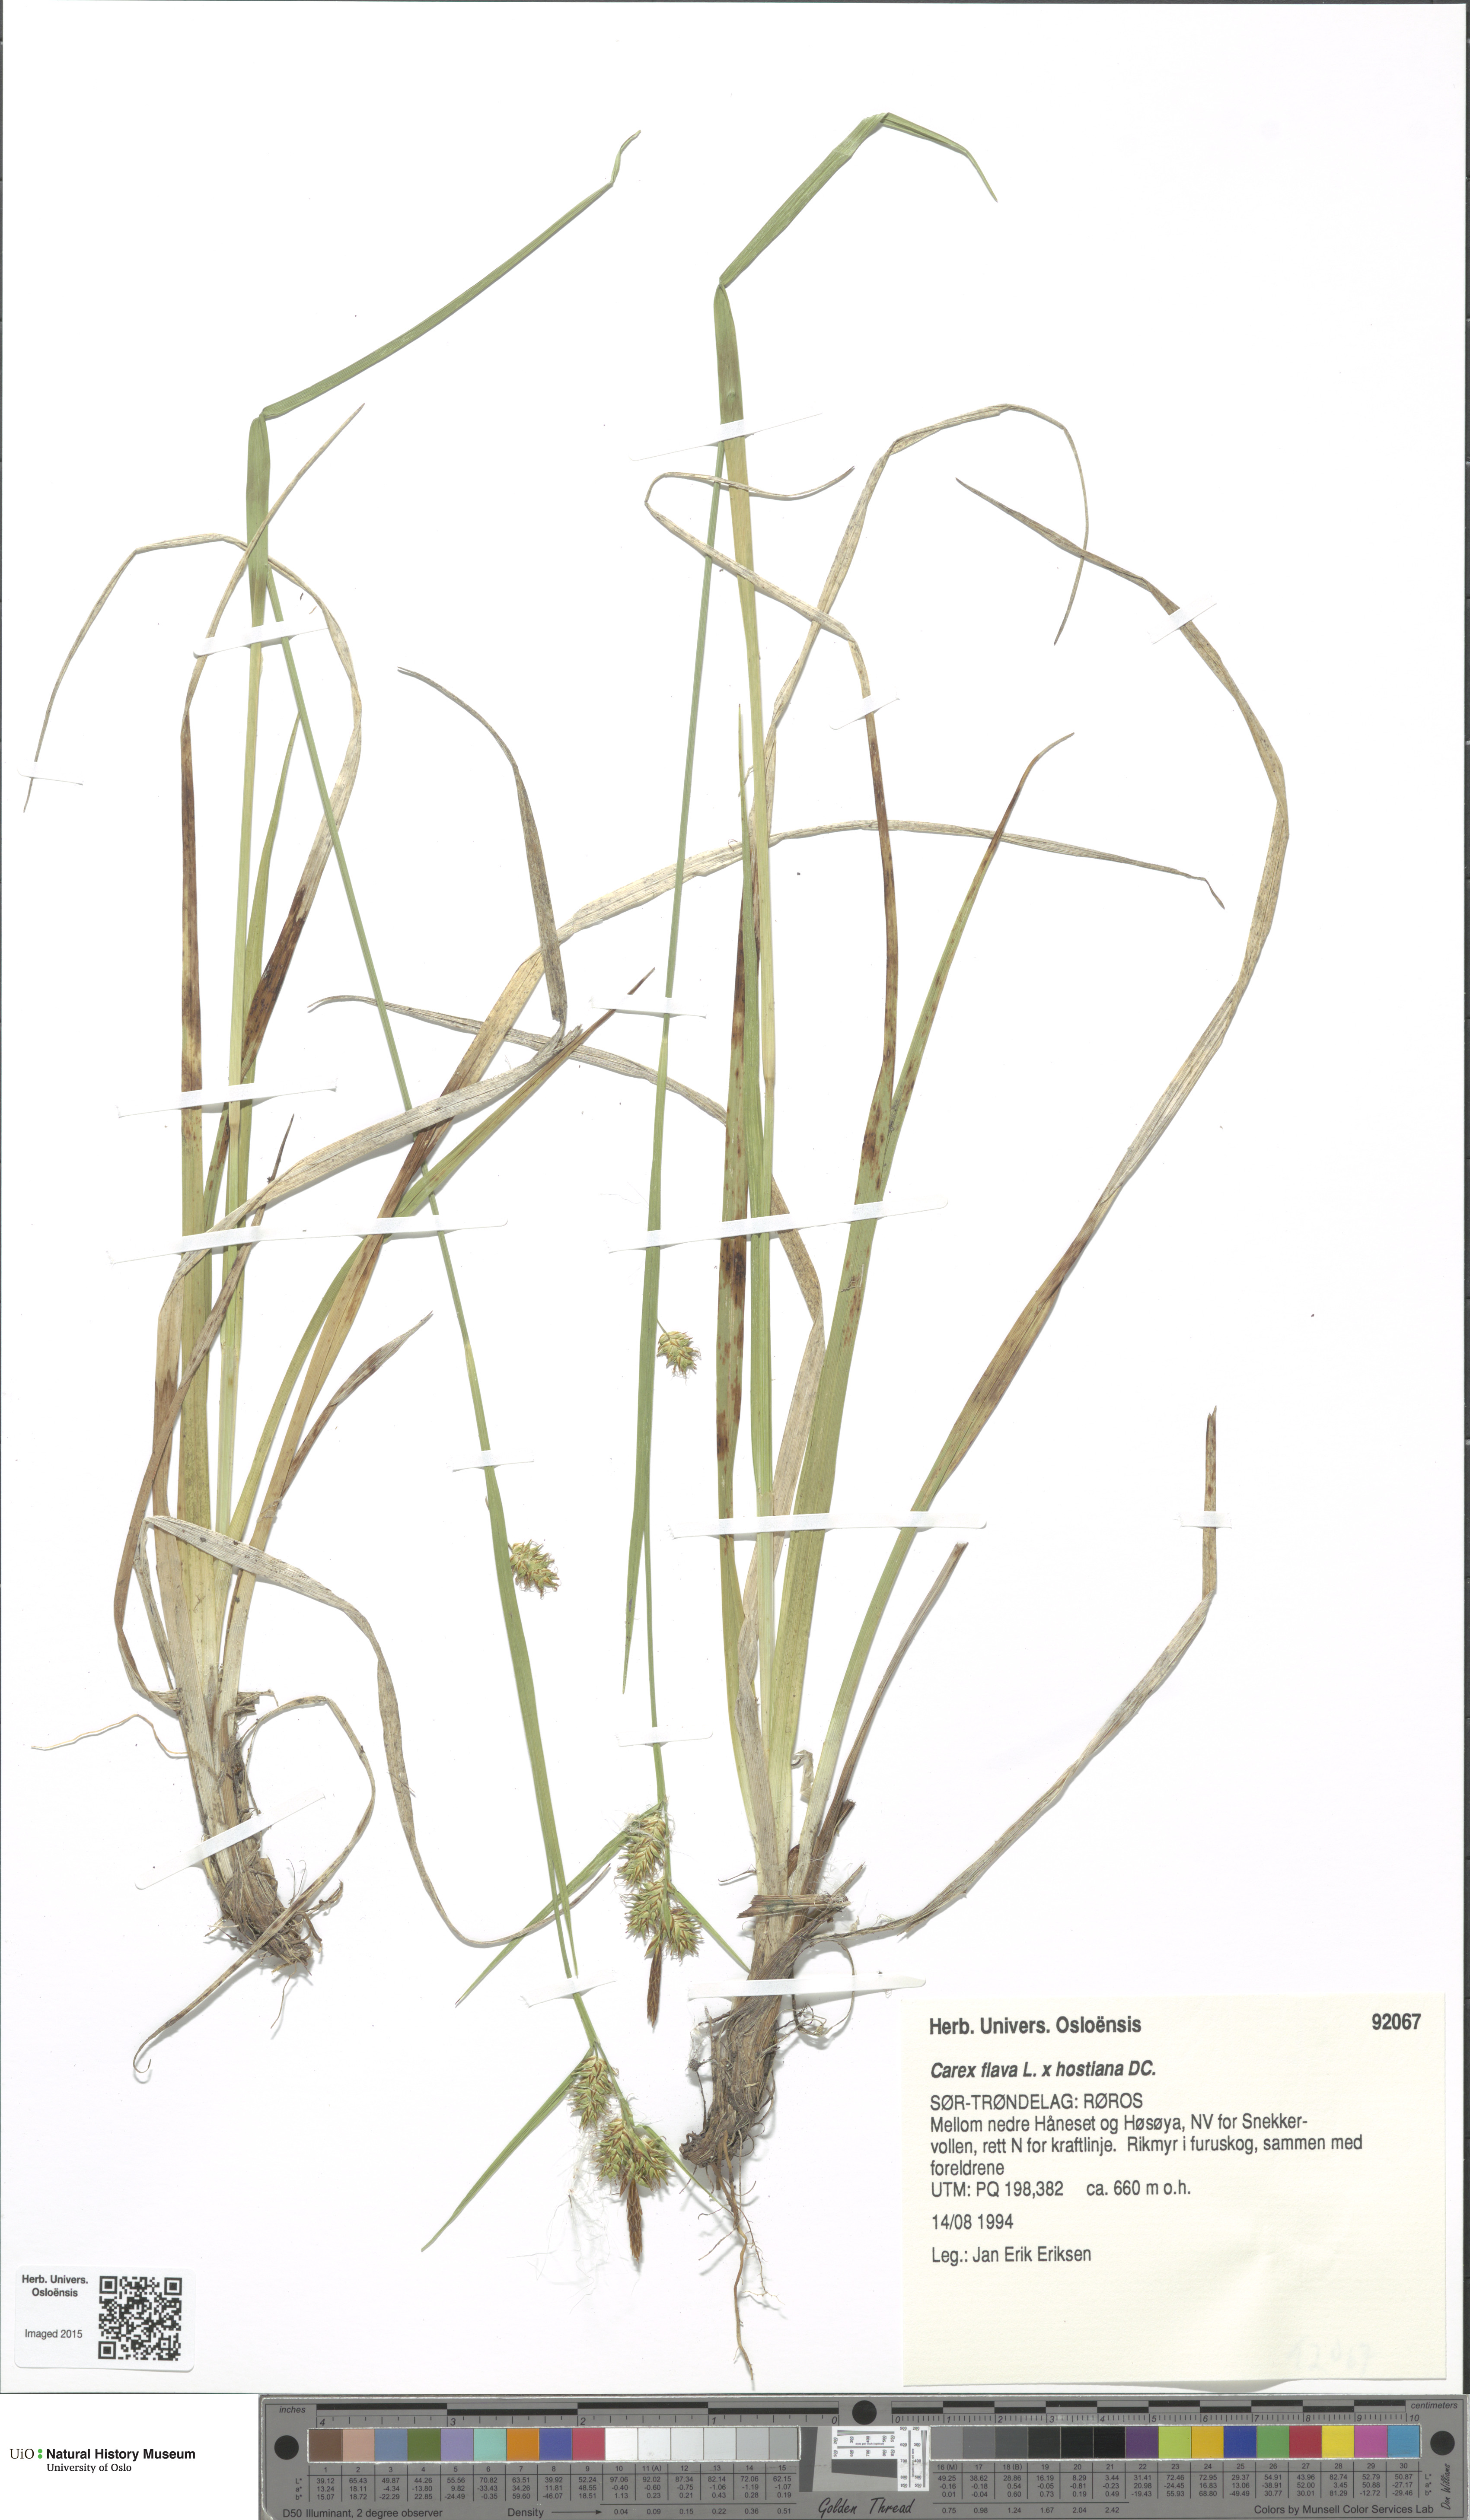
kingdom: Plantae
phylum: Tracheophyta
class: Liliopsida
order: Poales
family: Cyperaceae
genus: Carex
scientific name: Carex
